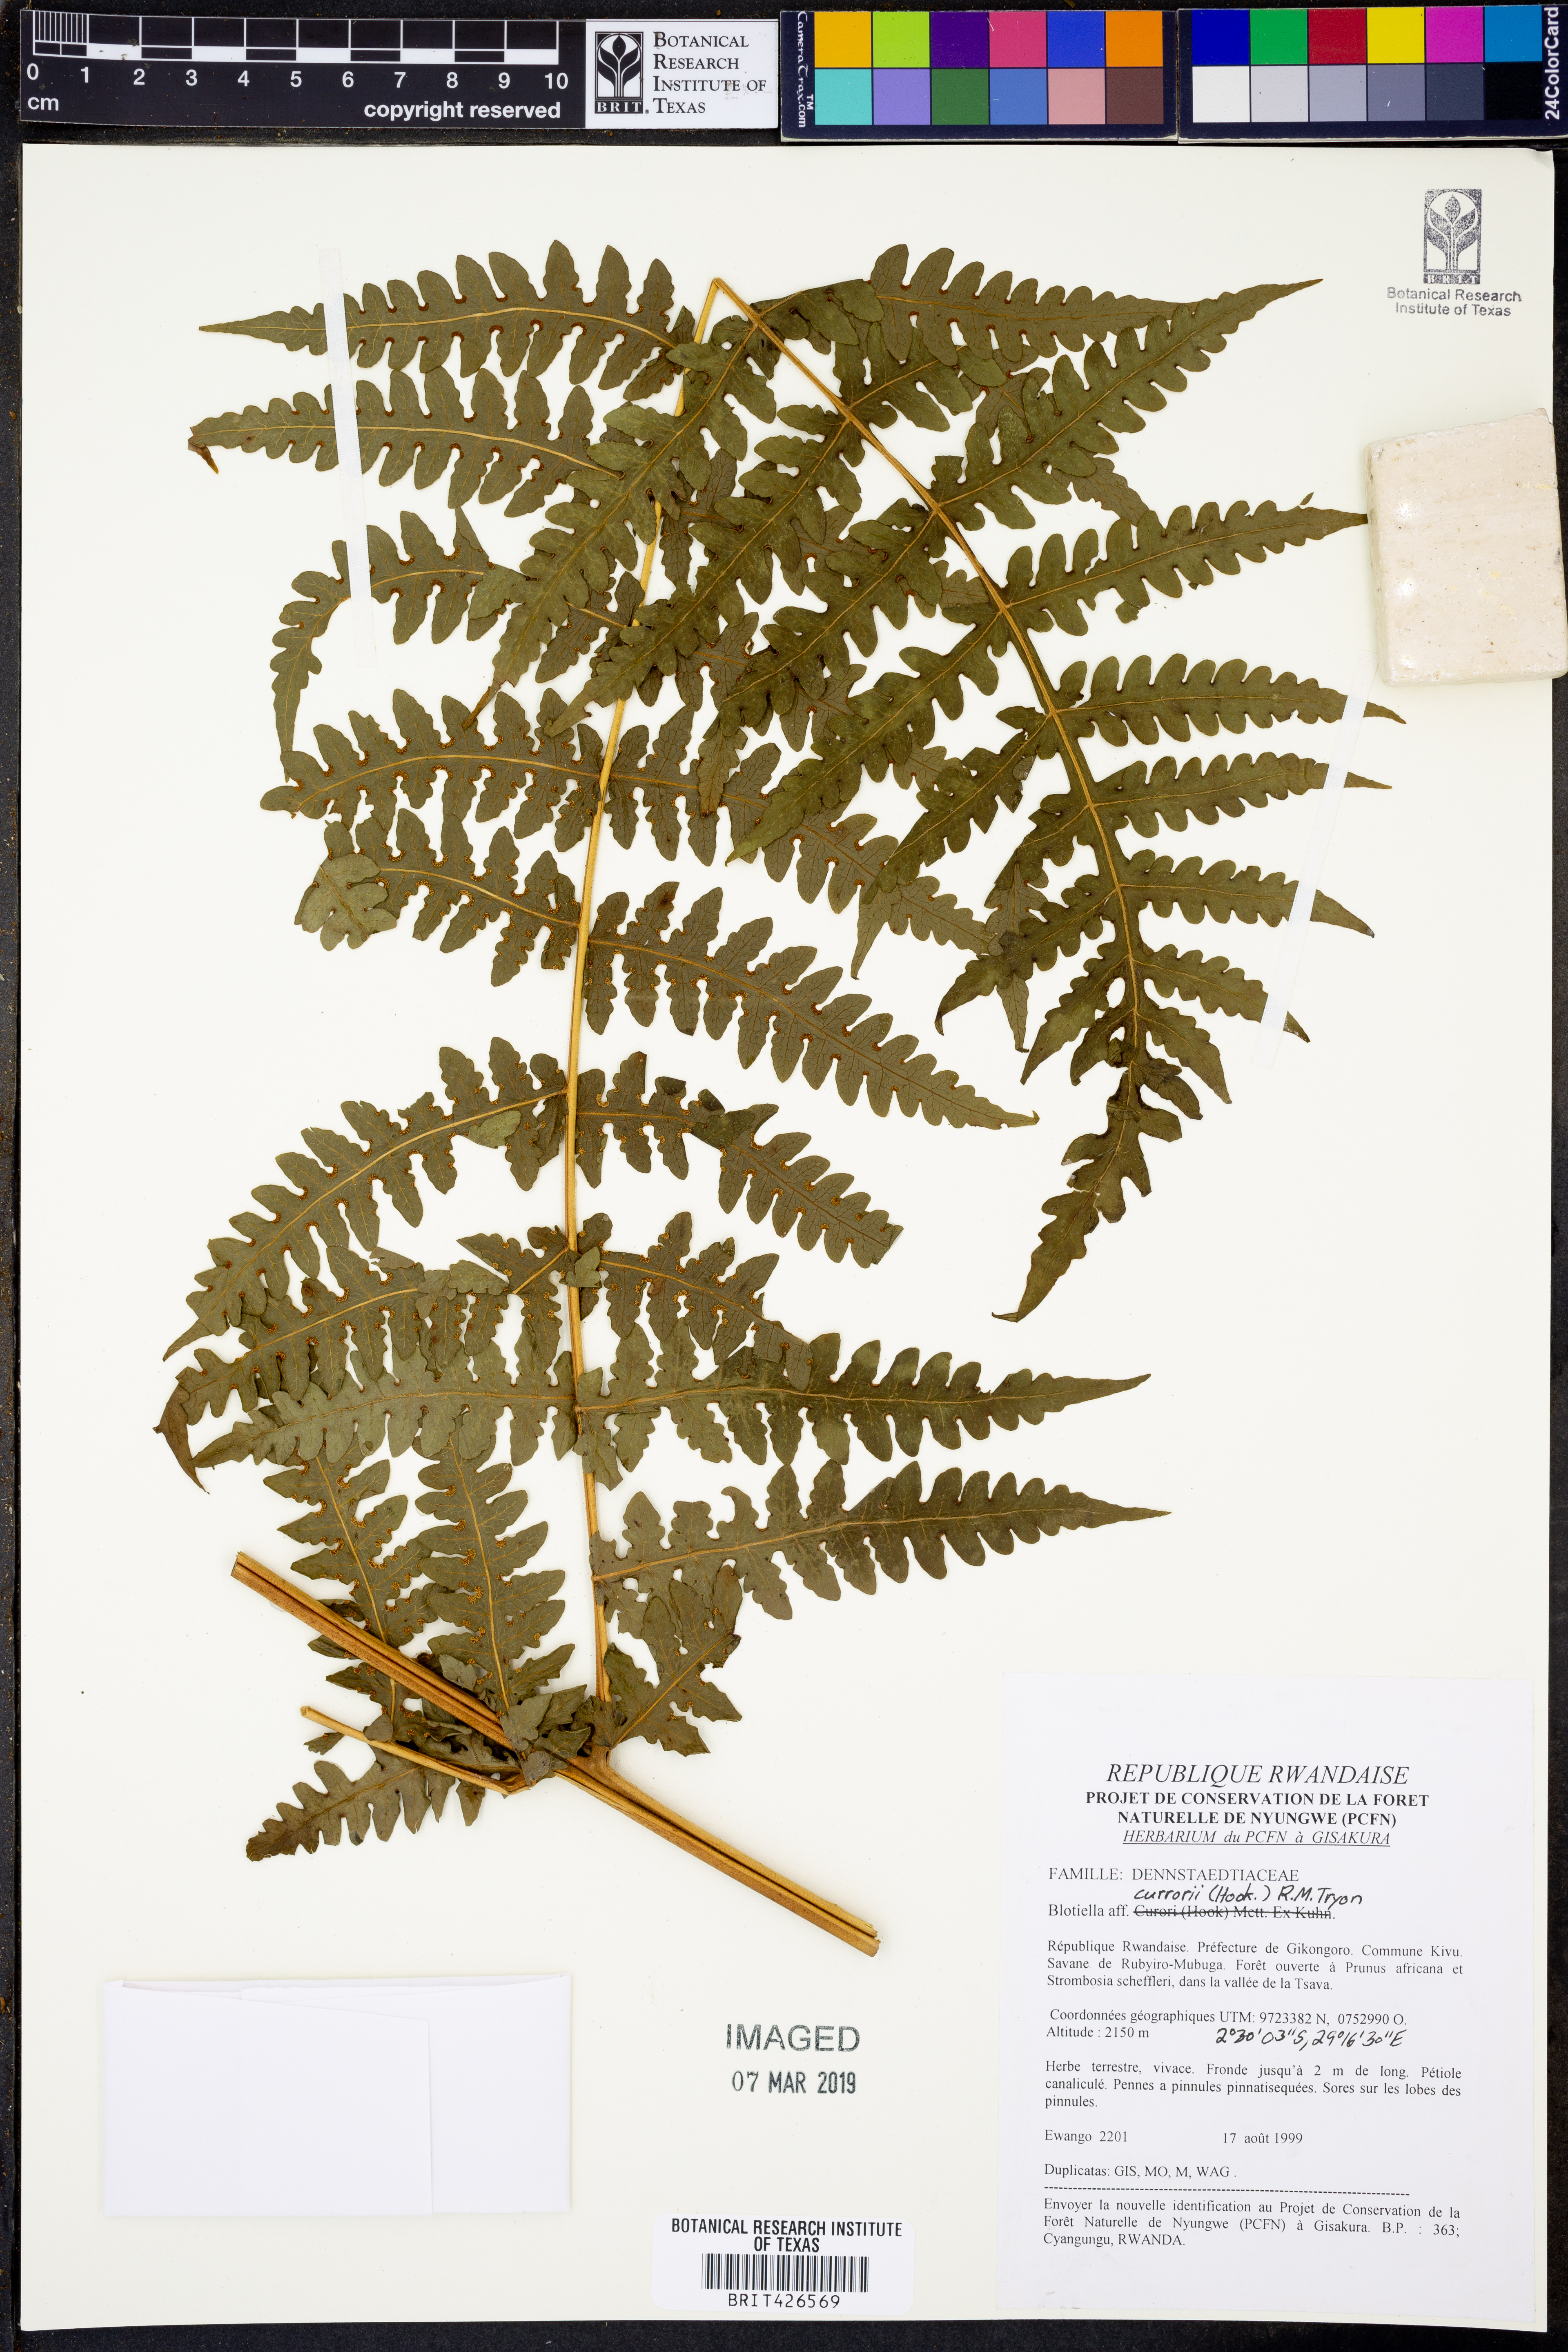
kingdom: Plantae
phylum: Tracheophyta
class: Polypodiopsida
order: Polypodiales
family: Dennstaedtiaceae
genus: Blotiella
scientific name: Blotiella currorii
